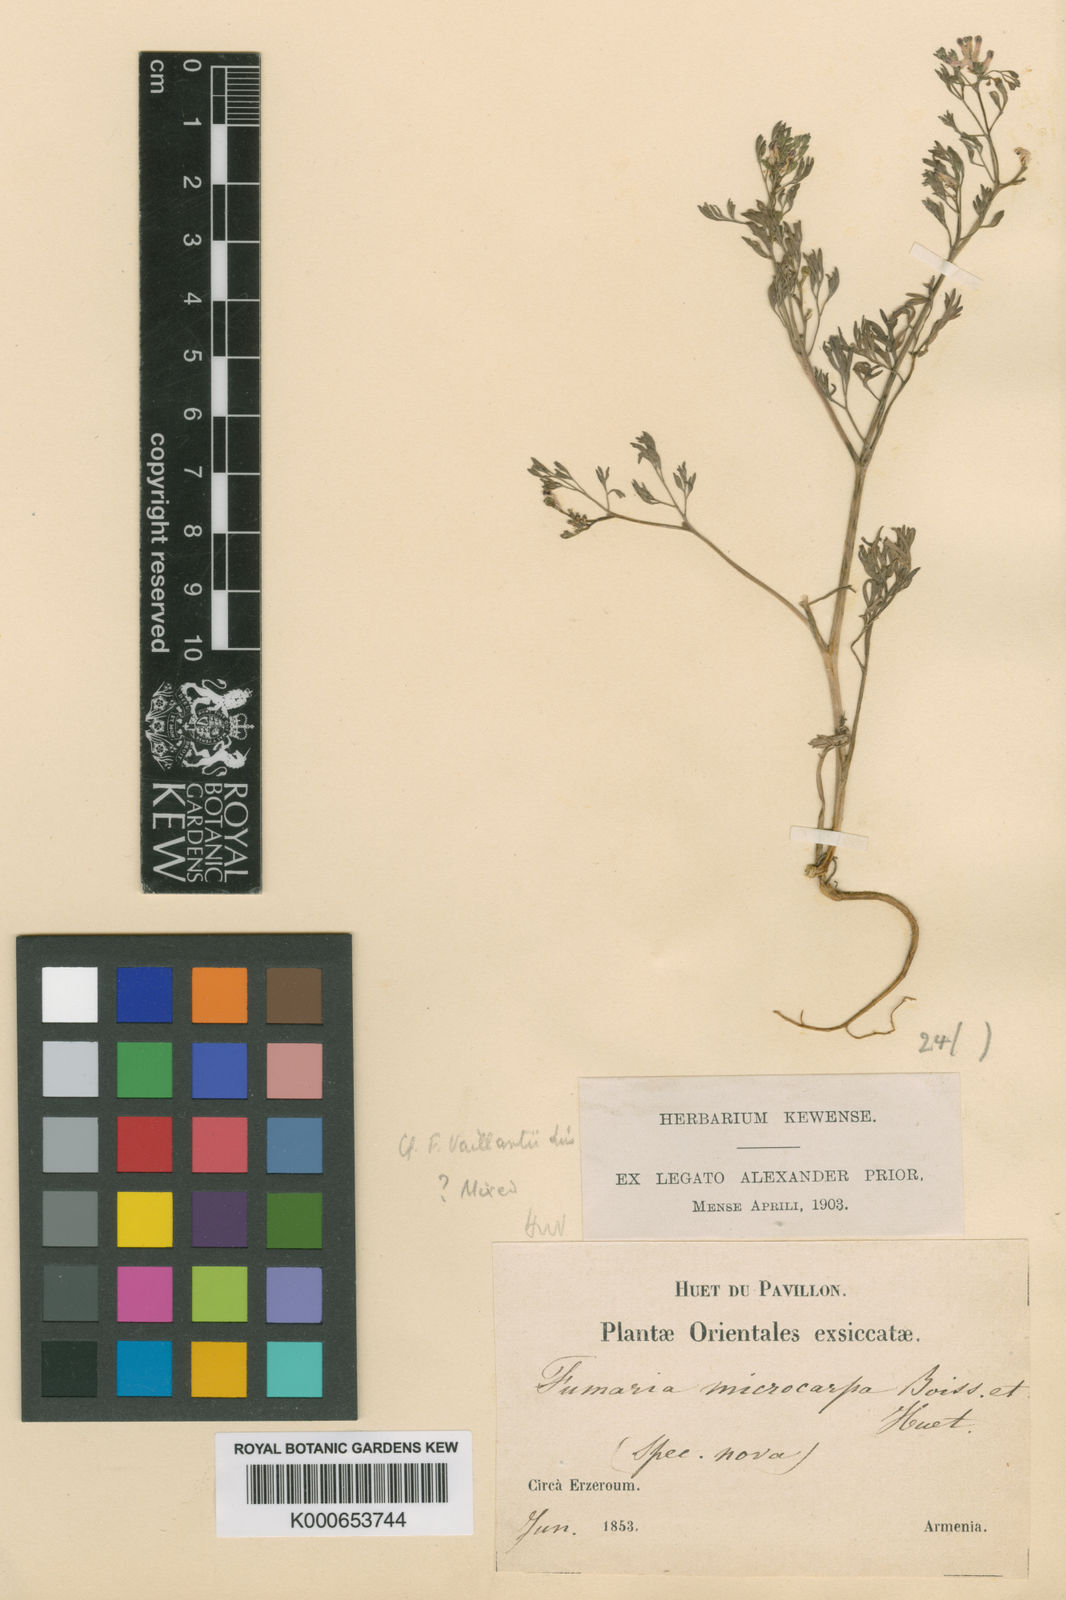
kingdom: Plantae
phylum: Tracheophyta
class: Magnoliopsida
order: Ranunculales
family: Papaveraceae
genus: Fumaria
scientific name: Fumaria schleicheri
